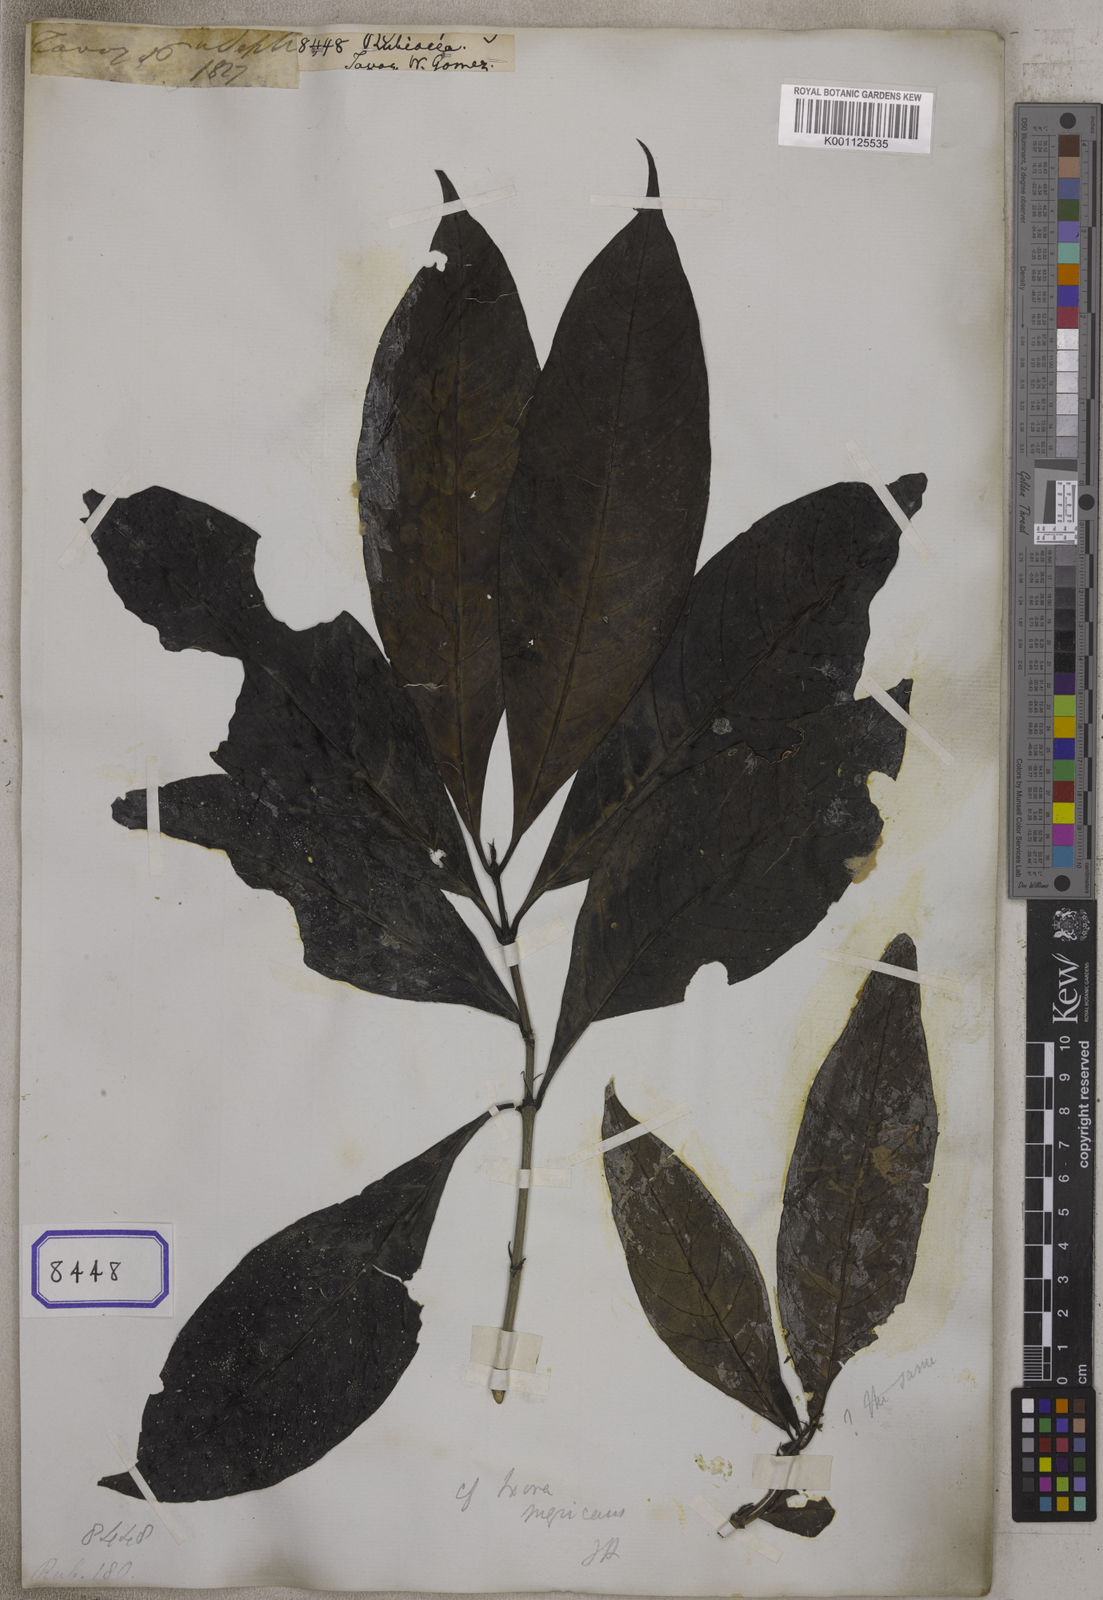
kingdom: Plantae
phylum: Tracheophyta
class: Magnoliopsida
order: Gentianales
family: Rubiaceae
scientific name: Rubiaceae
